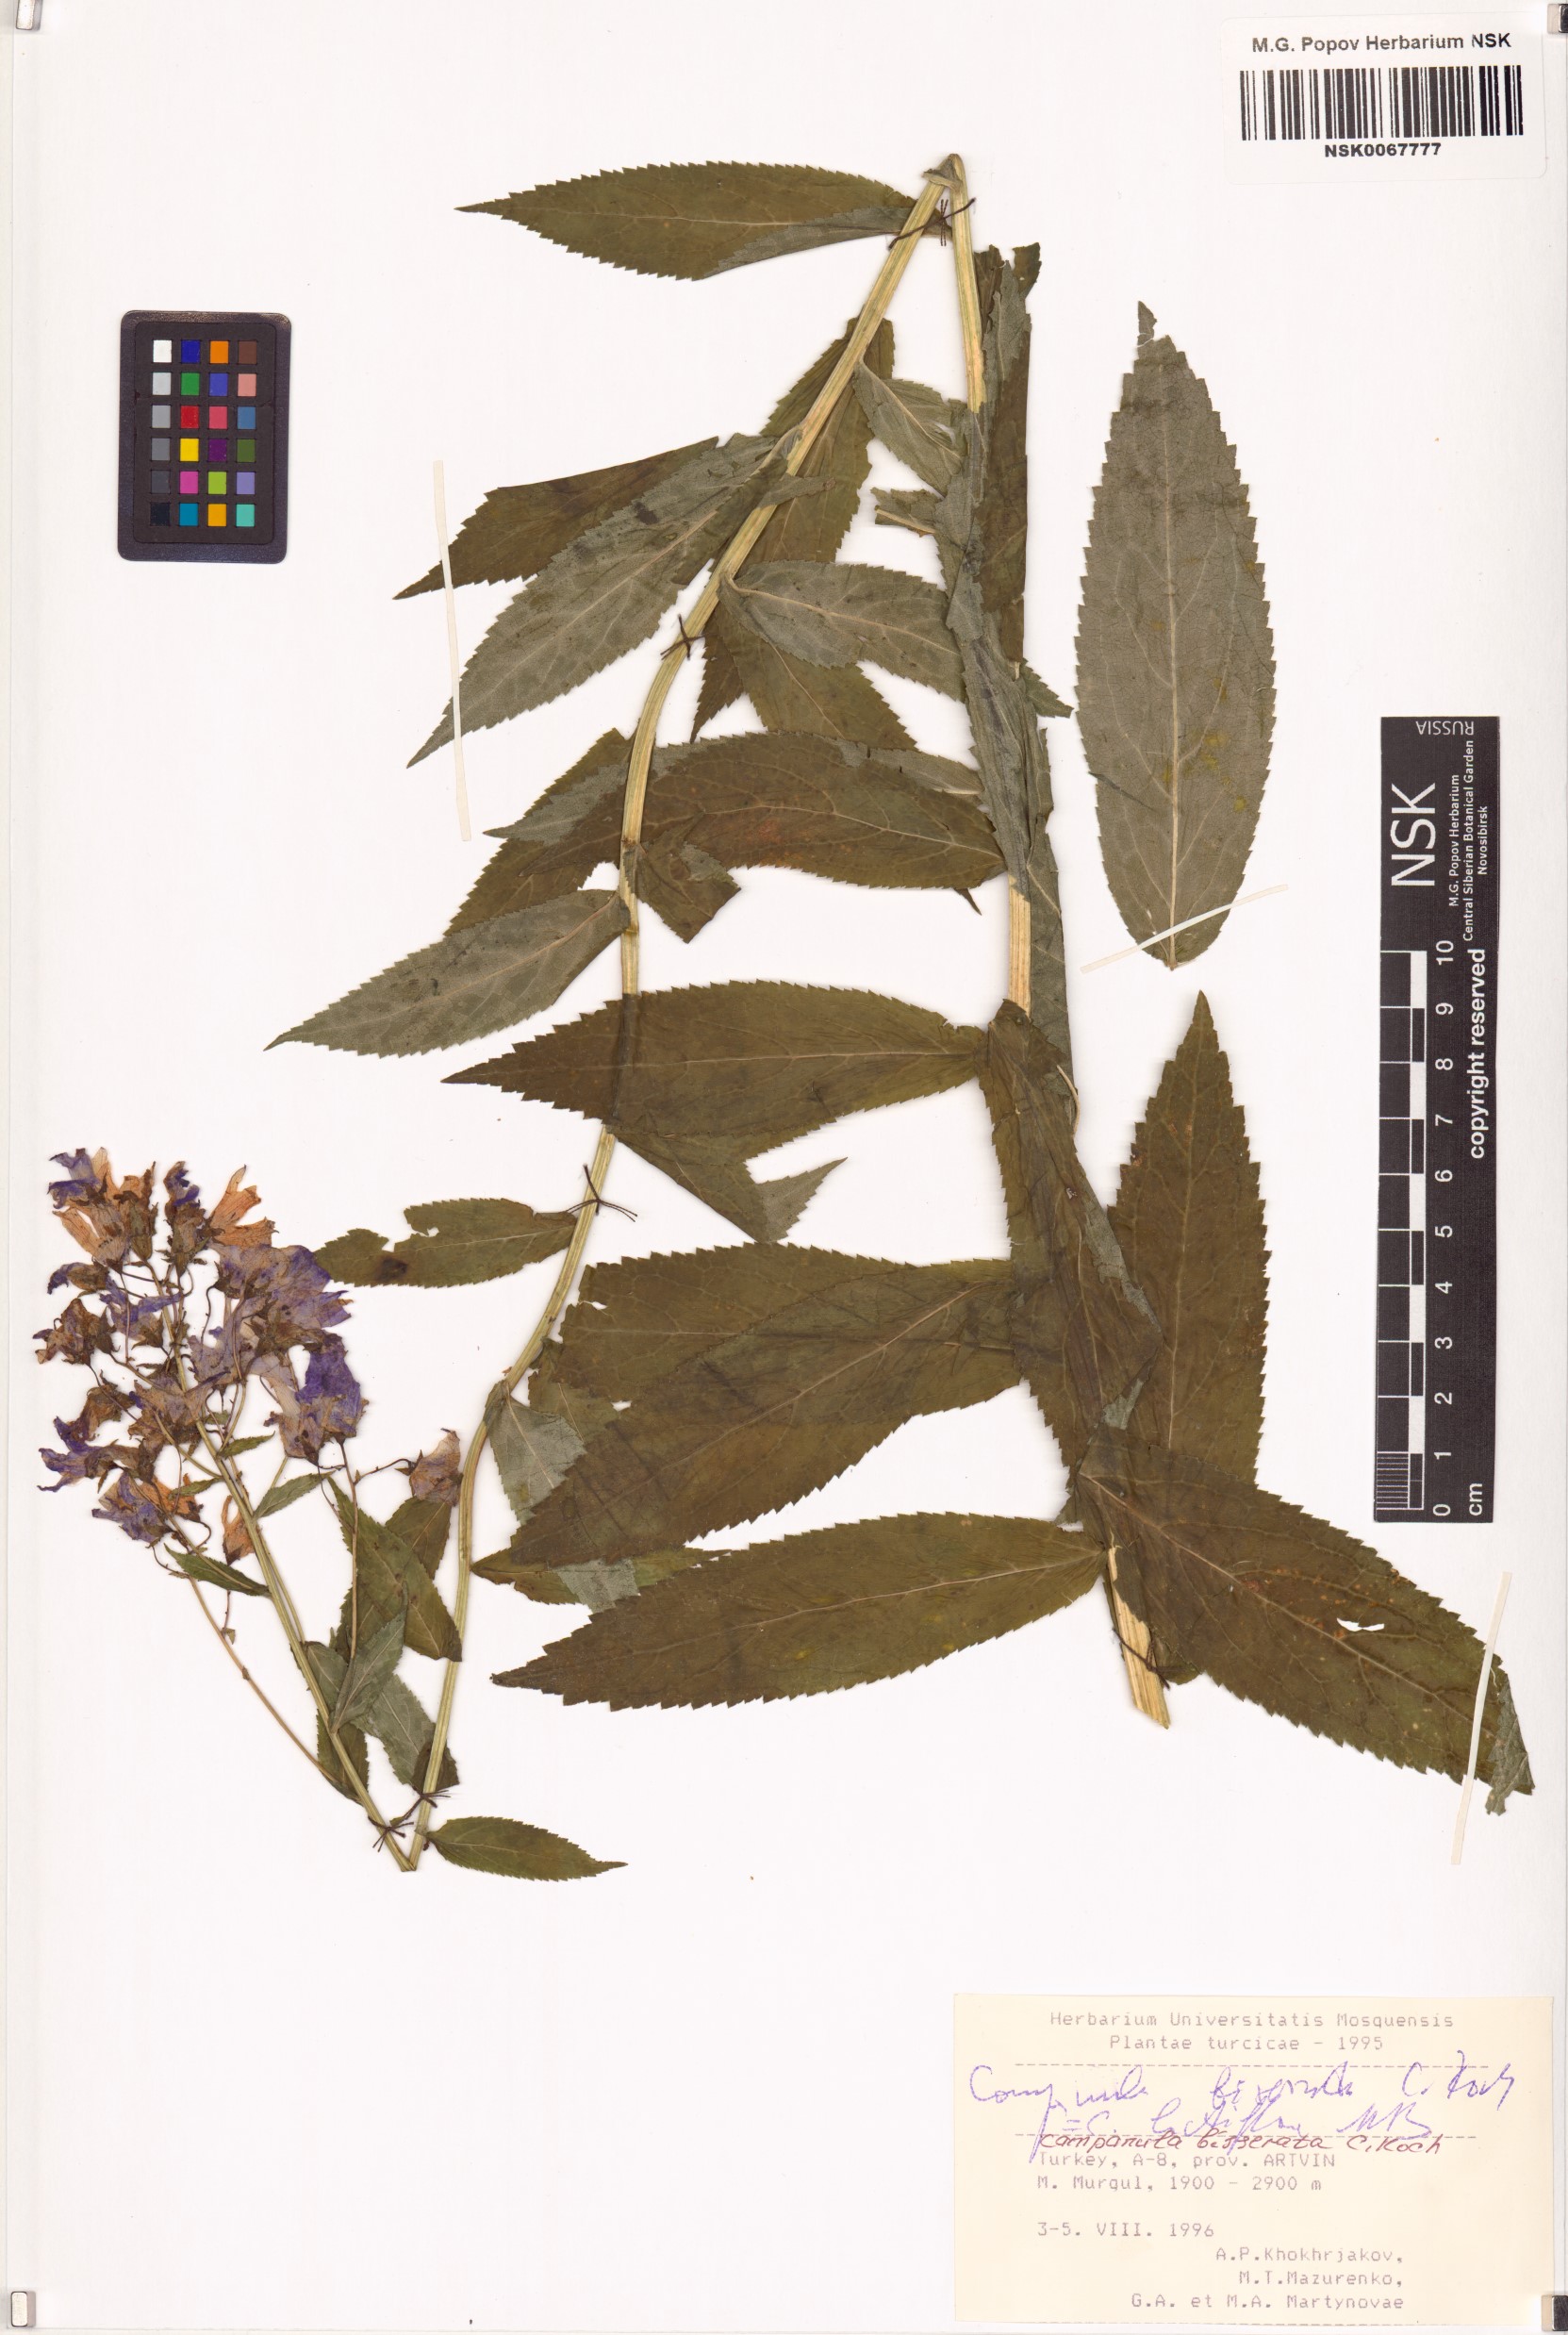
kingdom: Plantae
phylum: Tracheophyta
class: Magnoliopsida
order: Asterales
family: Campanulaceae
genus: Campanula
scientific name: Campanula lactiflora
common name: Milky bellflower
